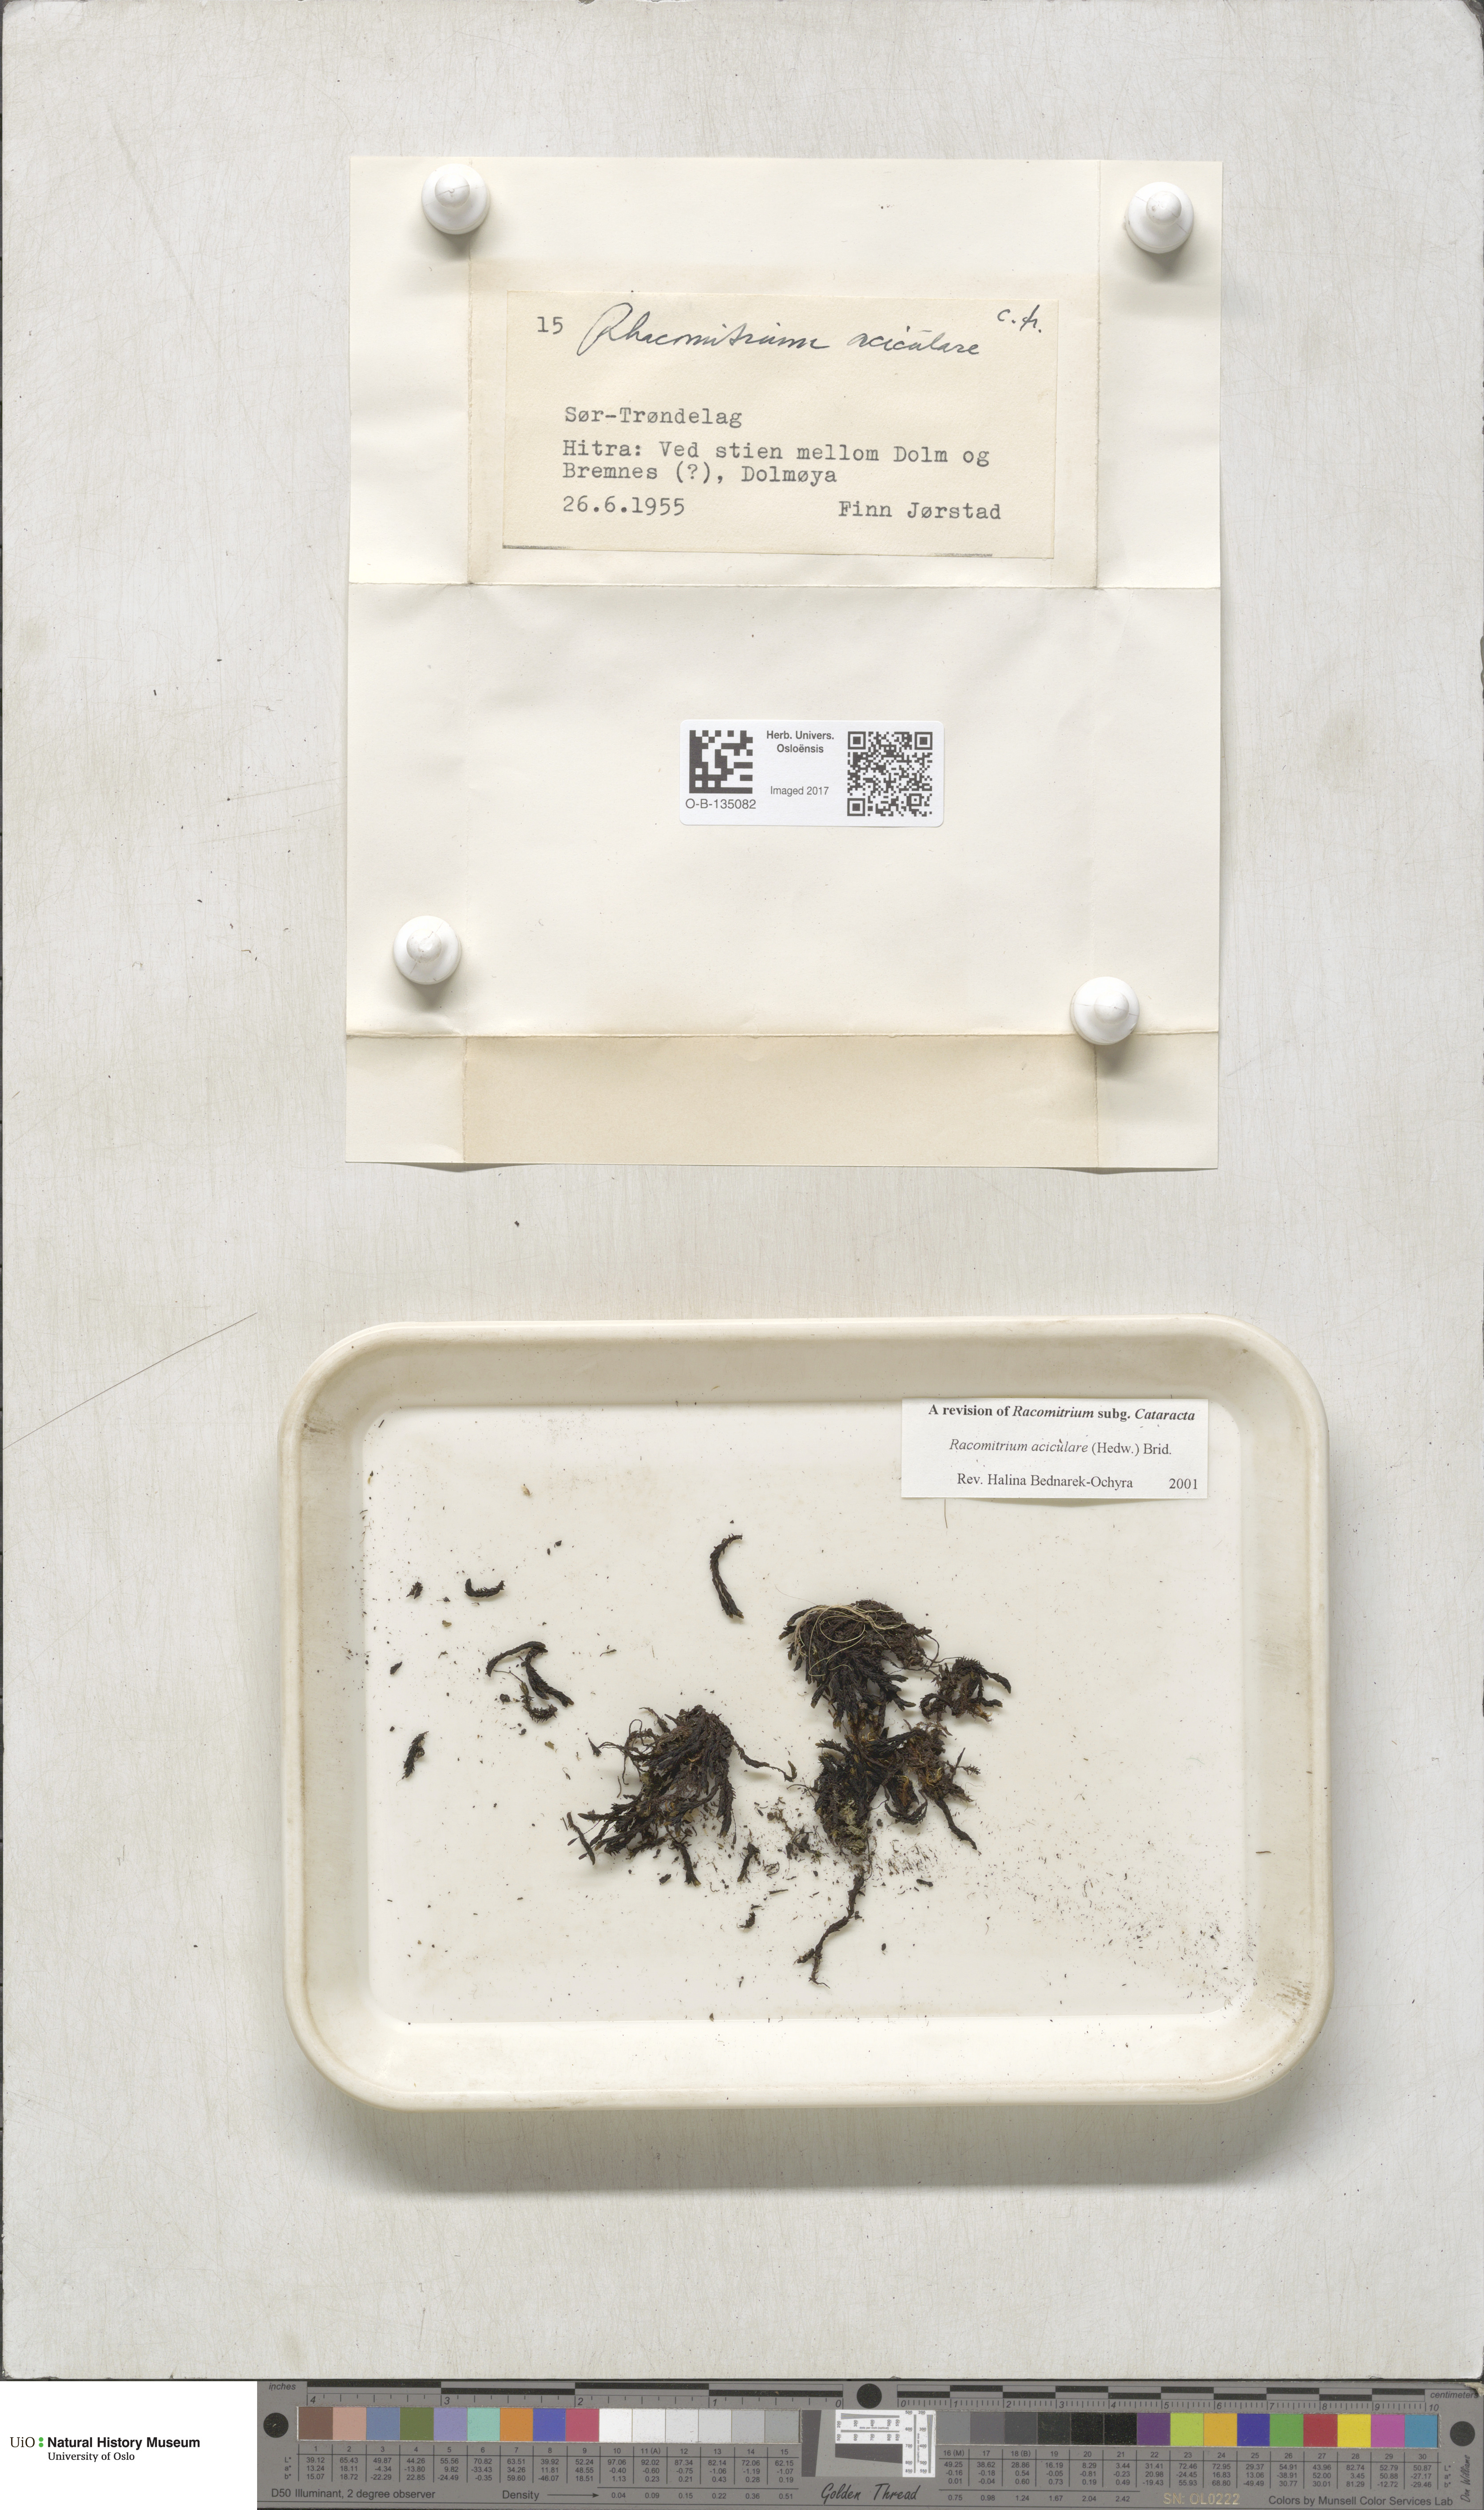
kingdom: Plantae
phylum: Bryophyta
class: Bryopsida
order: Grimmiales
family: Grimmiaceae
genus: Codriophorus
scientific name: Codriophorus acicularis
